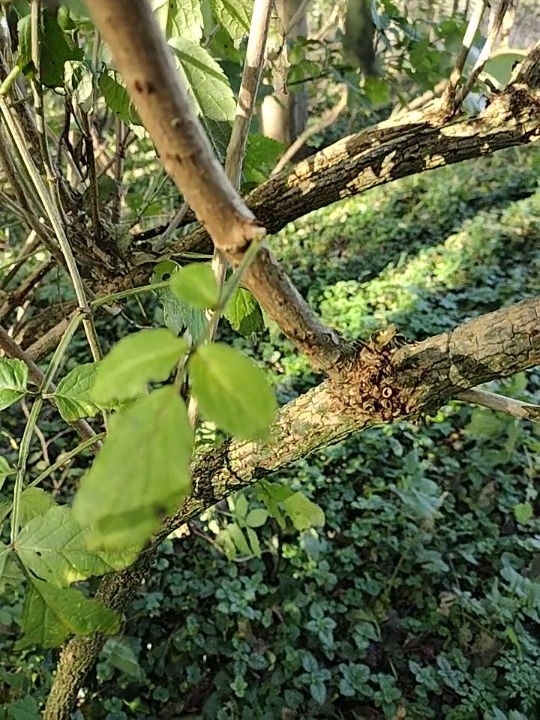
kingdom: Plantae
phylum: Tracheophyta
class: Magnoliopsida
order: Dipsacales
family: Viburnaceae
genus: Sambucus
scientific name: Sambucus nigra
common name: Almindelig hyld
